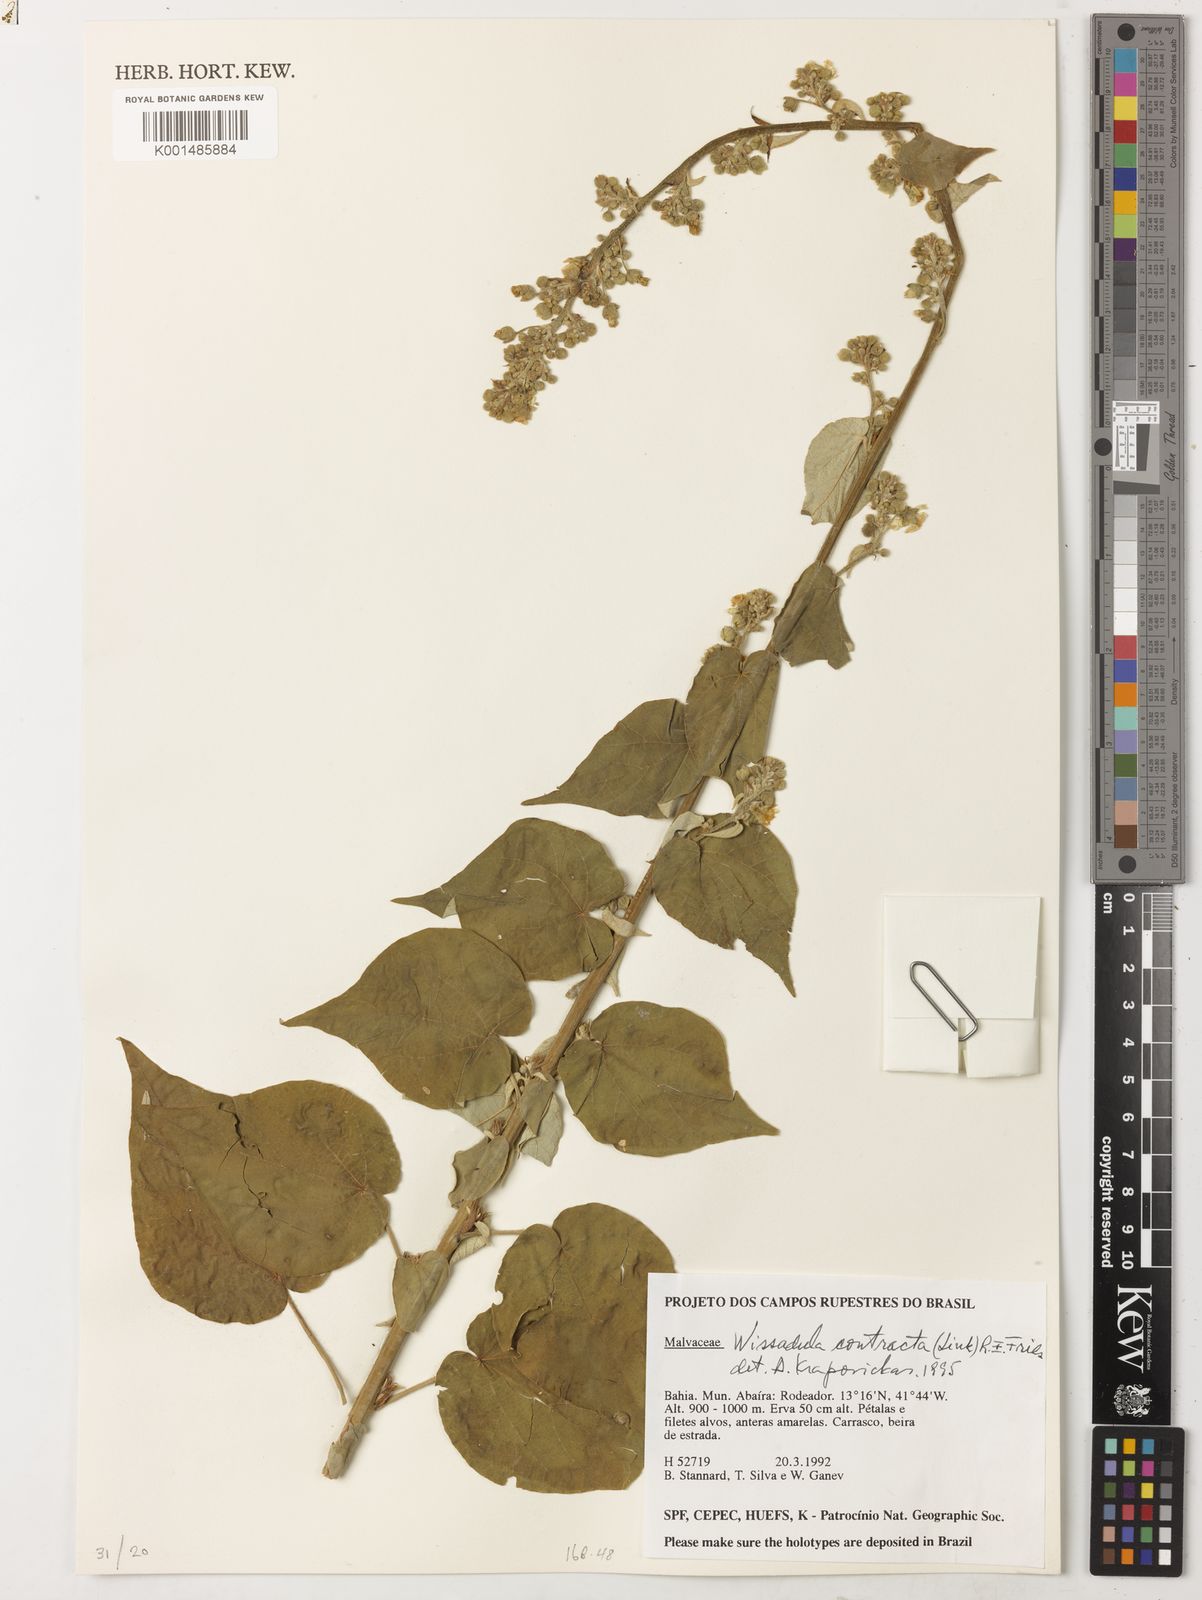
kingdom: Plantae
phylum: Tracheophyta
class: Magnoliopsida
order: Malvales
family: Malvaceae
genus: Wissadula
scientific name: Wissadula contracta
